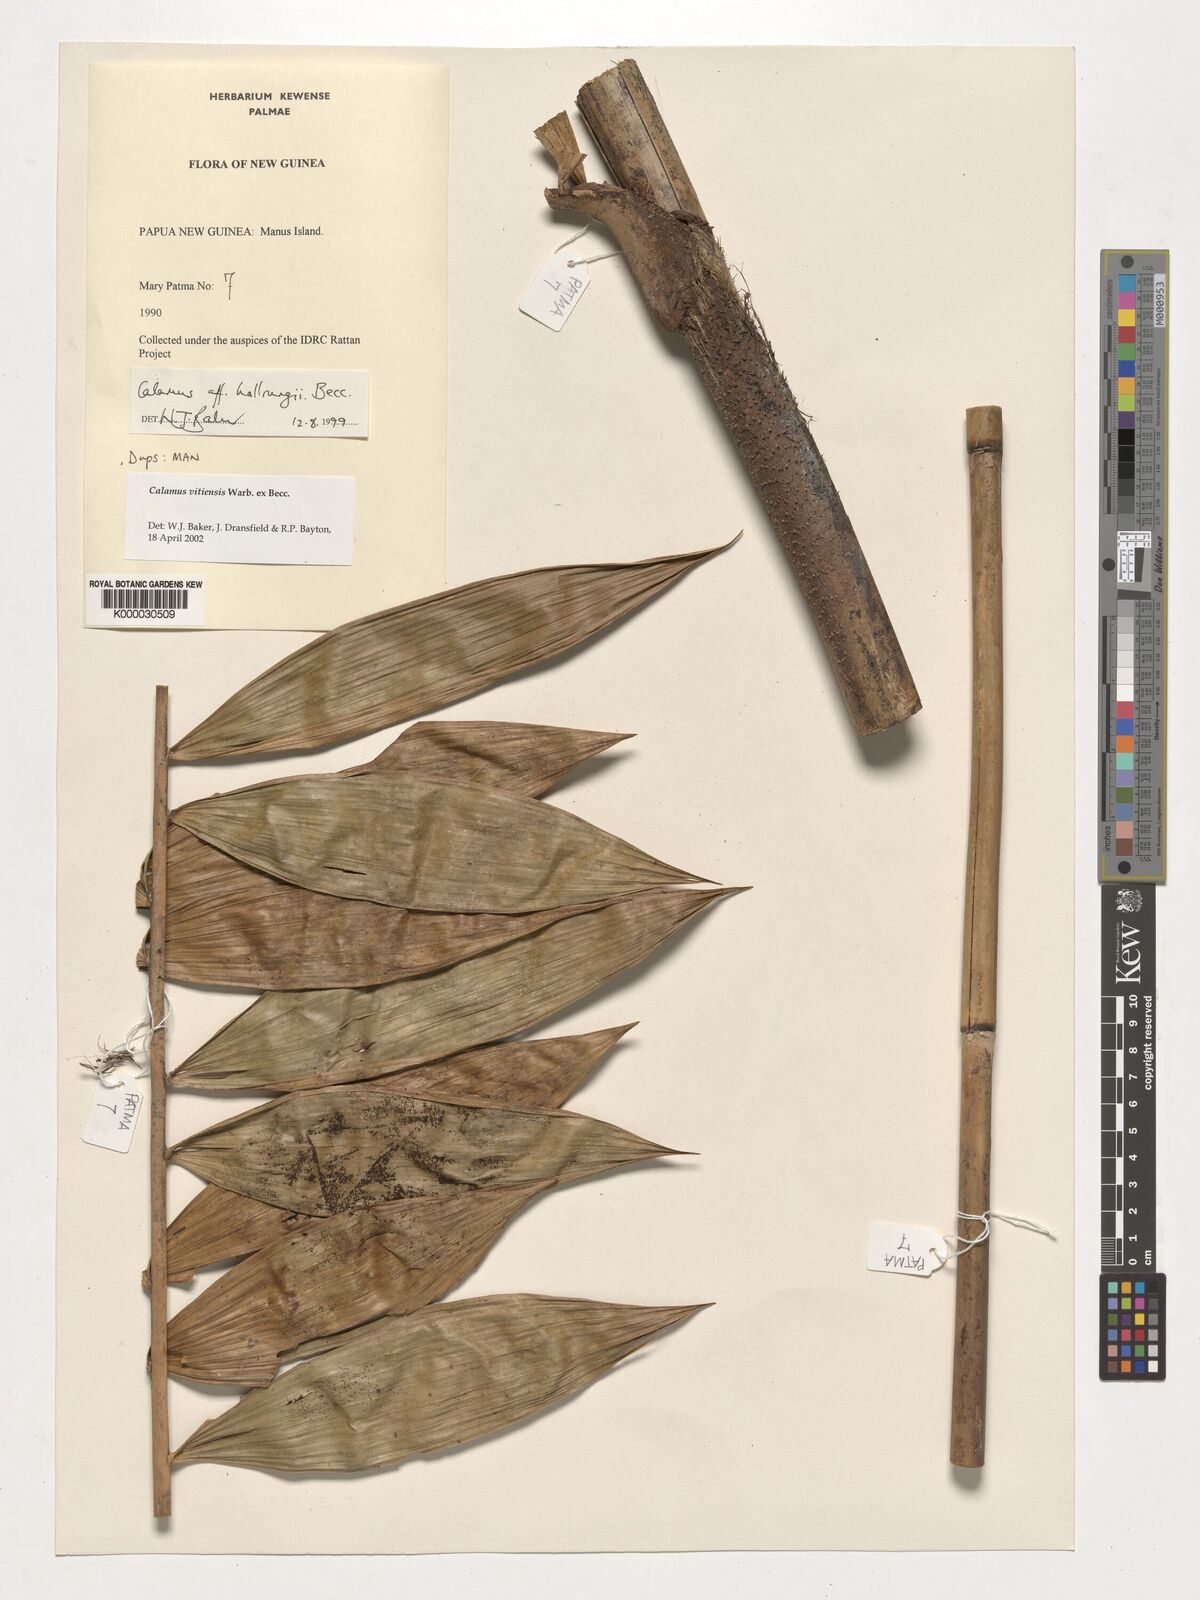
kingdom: Plantae
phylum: Tracheophyta
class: Liliopsida
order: Arecales
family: Arecaceae
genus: Calamus
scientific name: Calamus vitiensis
